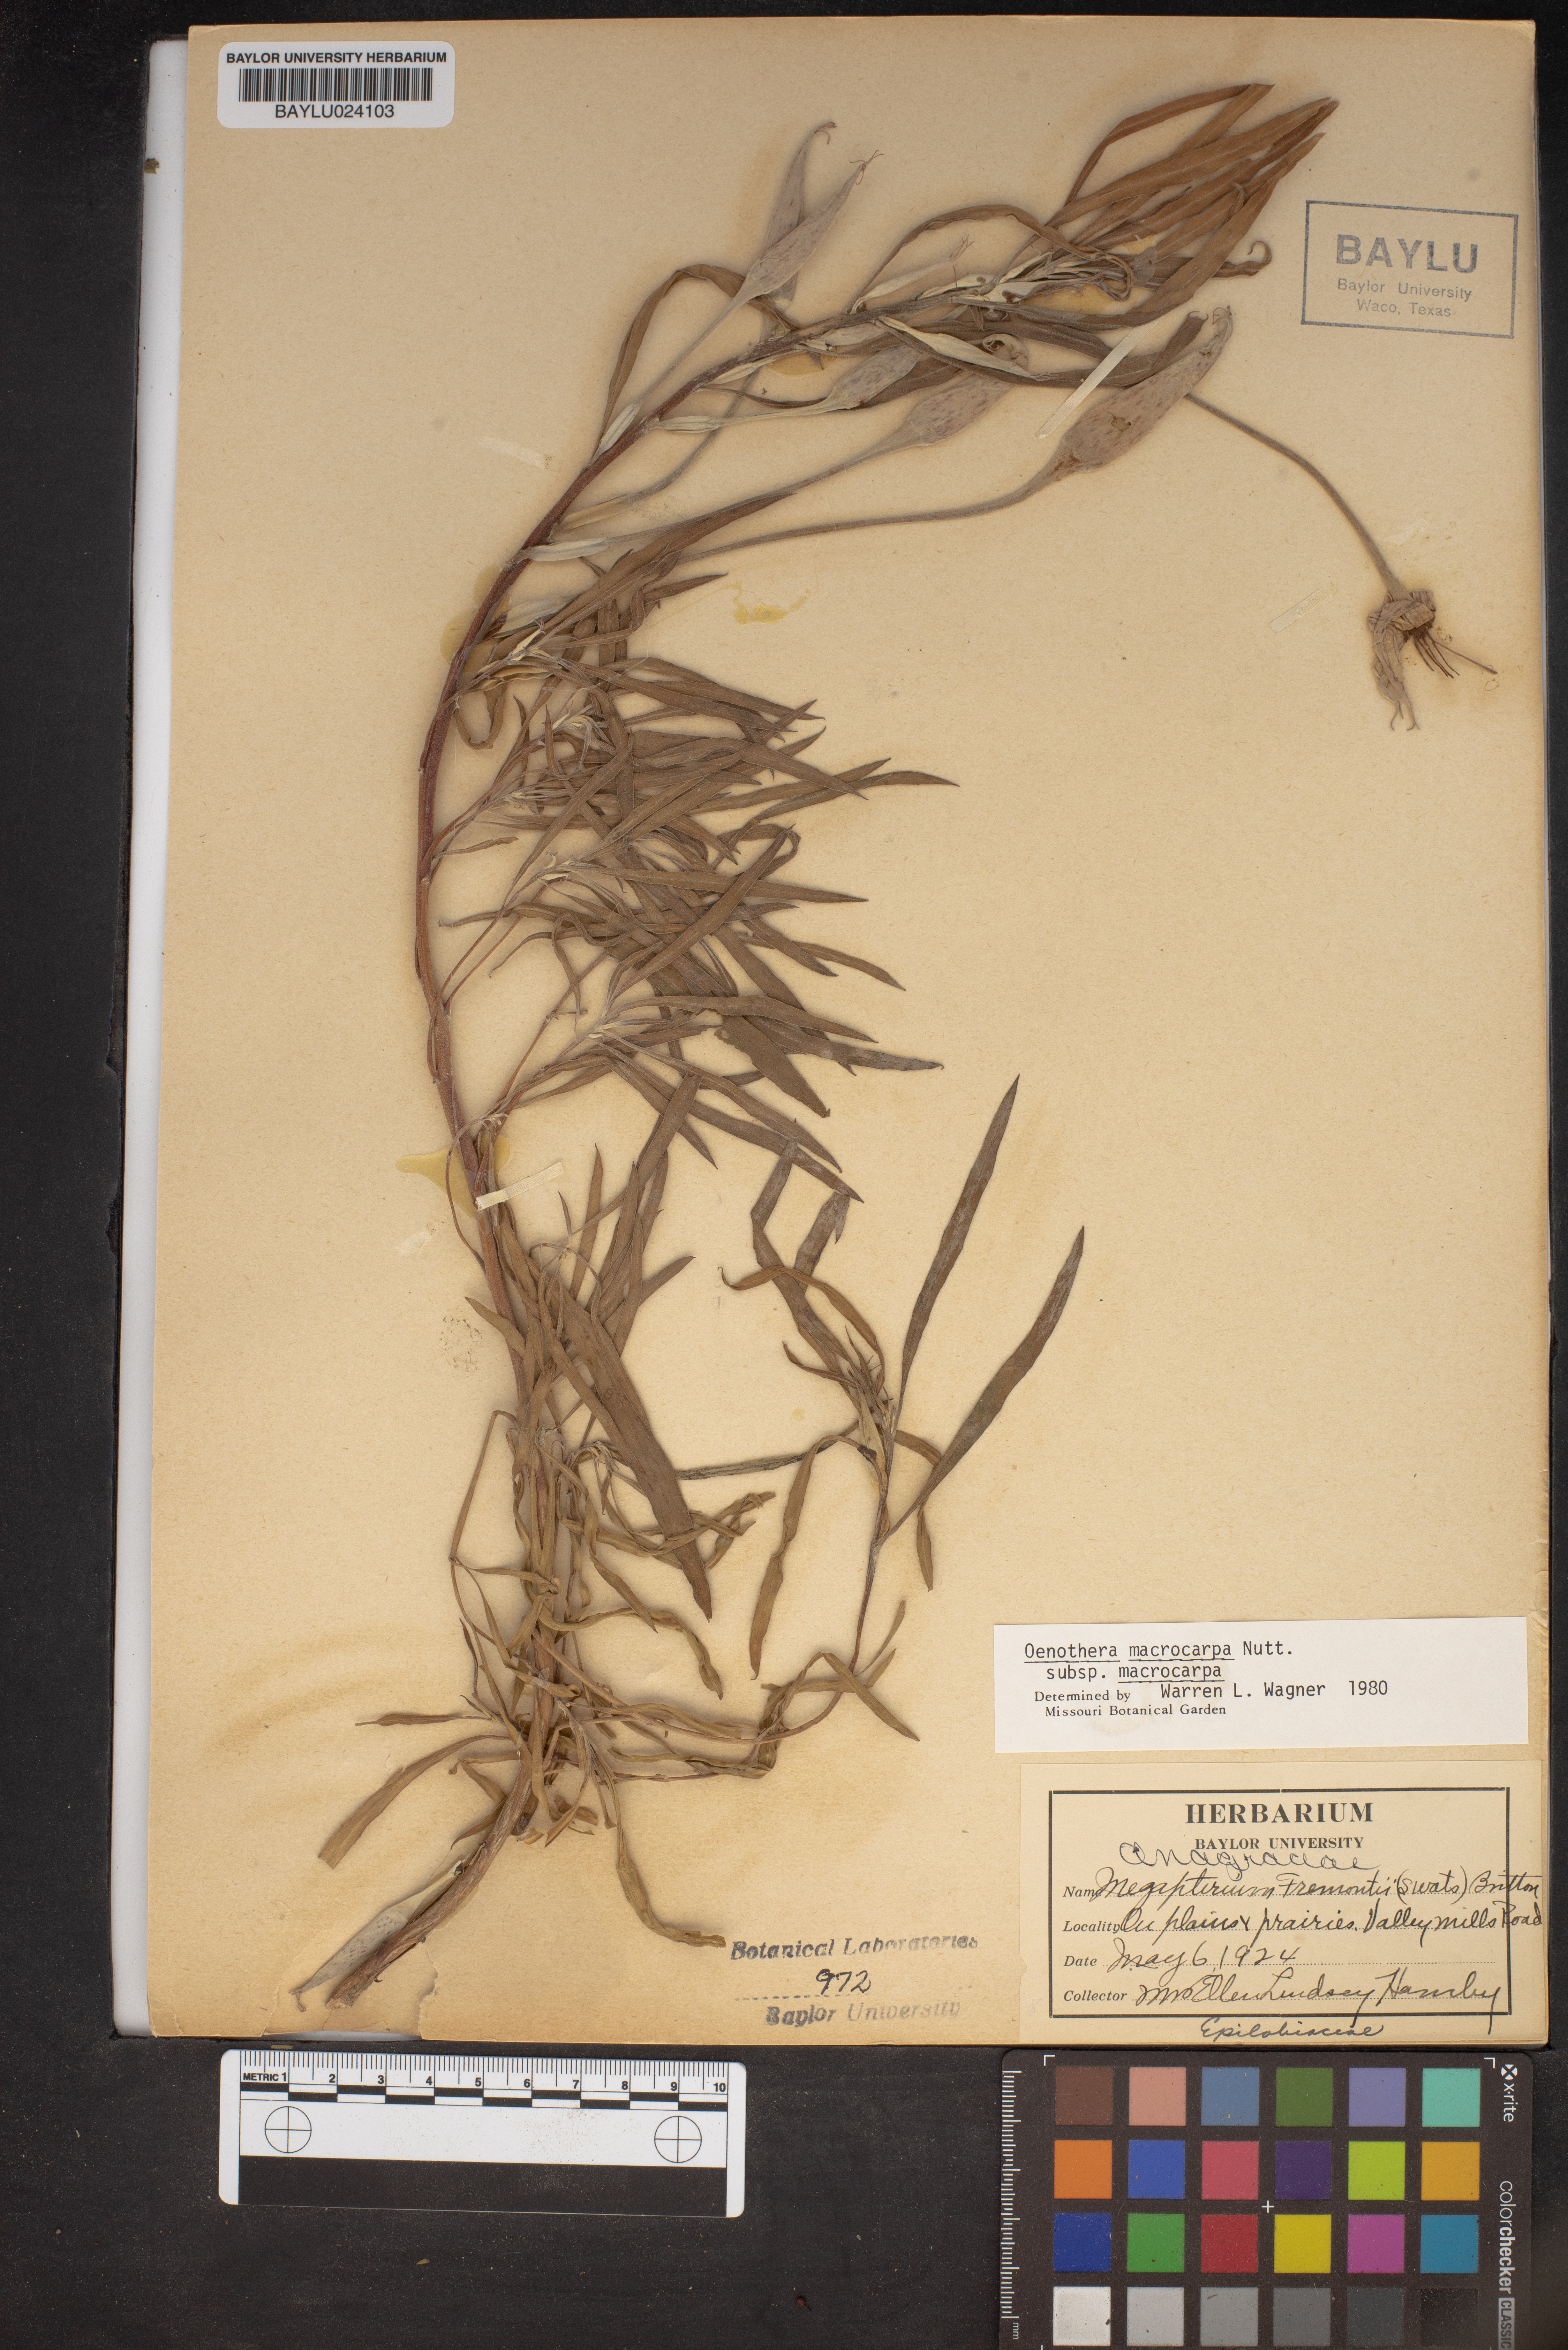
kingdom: Plantae
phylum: Tracheophyta
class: Magnoliopsida
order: Myrtales
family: Onagraceae
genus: Oenothera
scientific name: Oenothera macrocarpa
